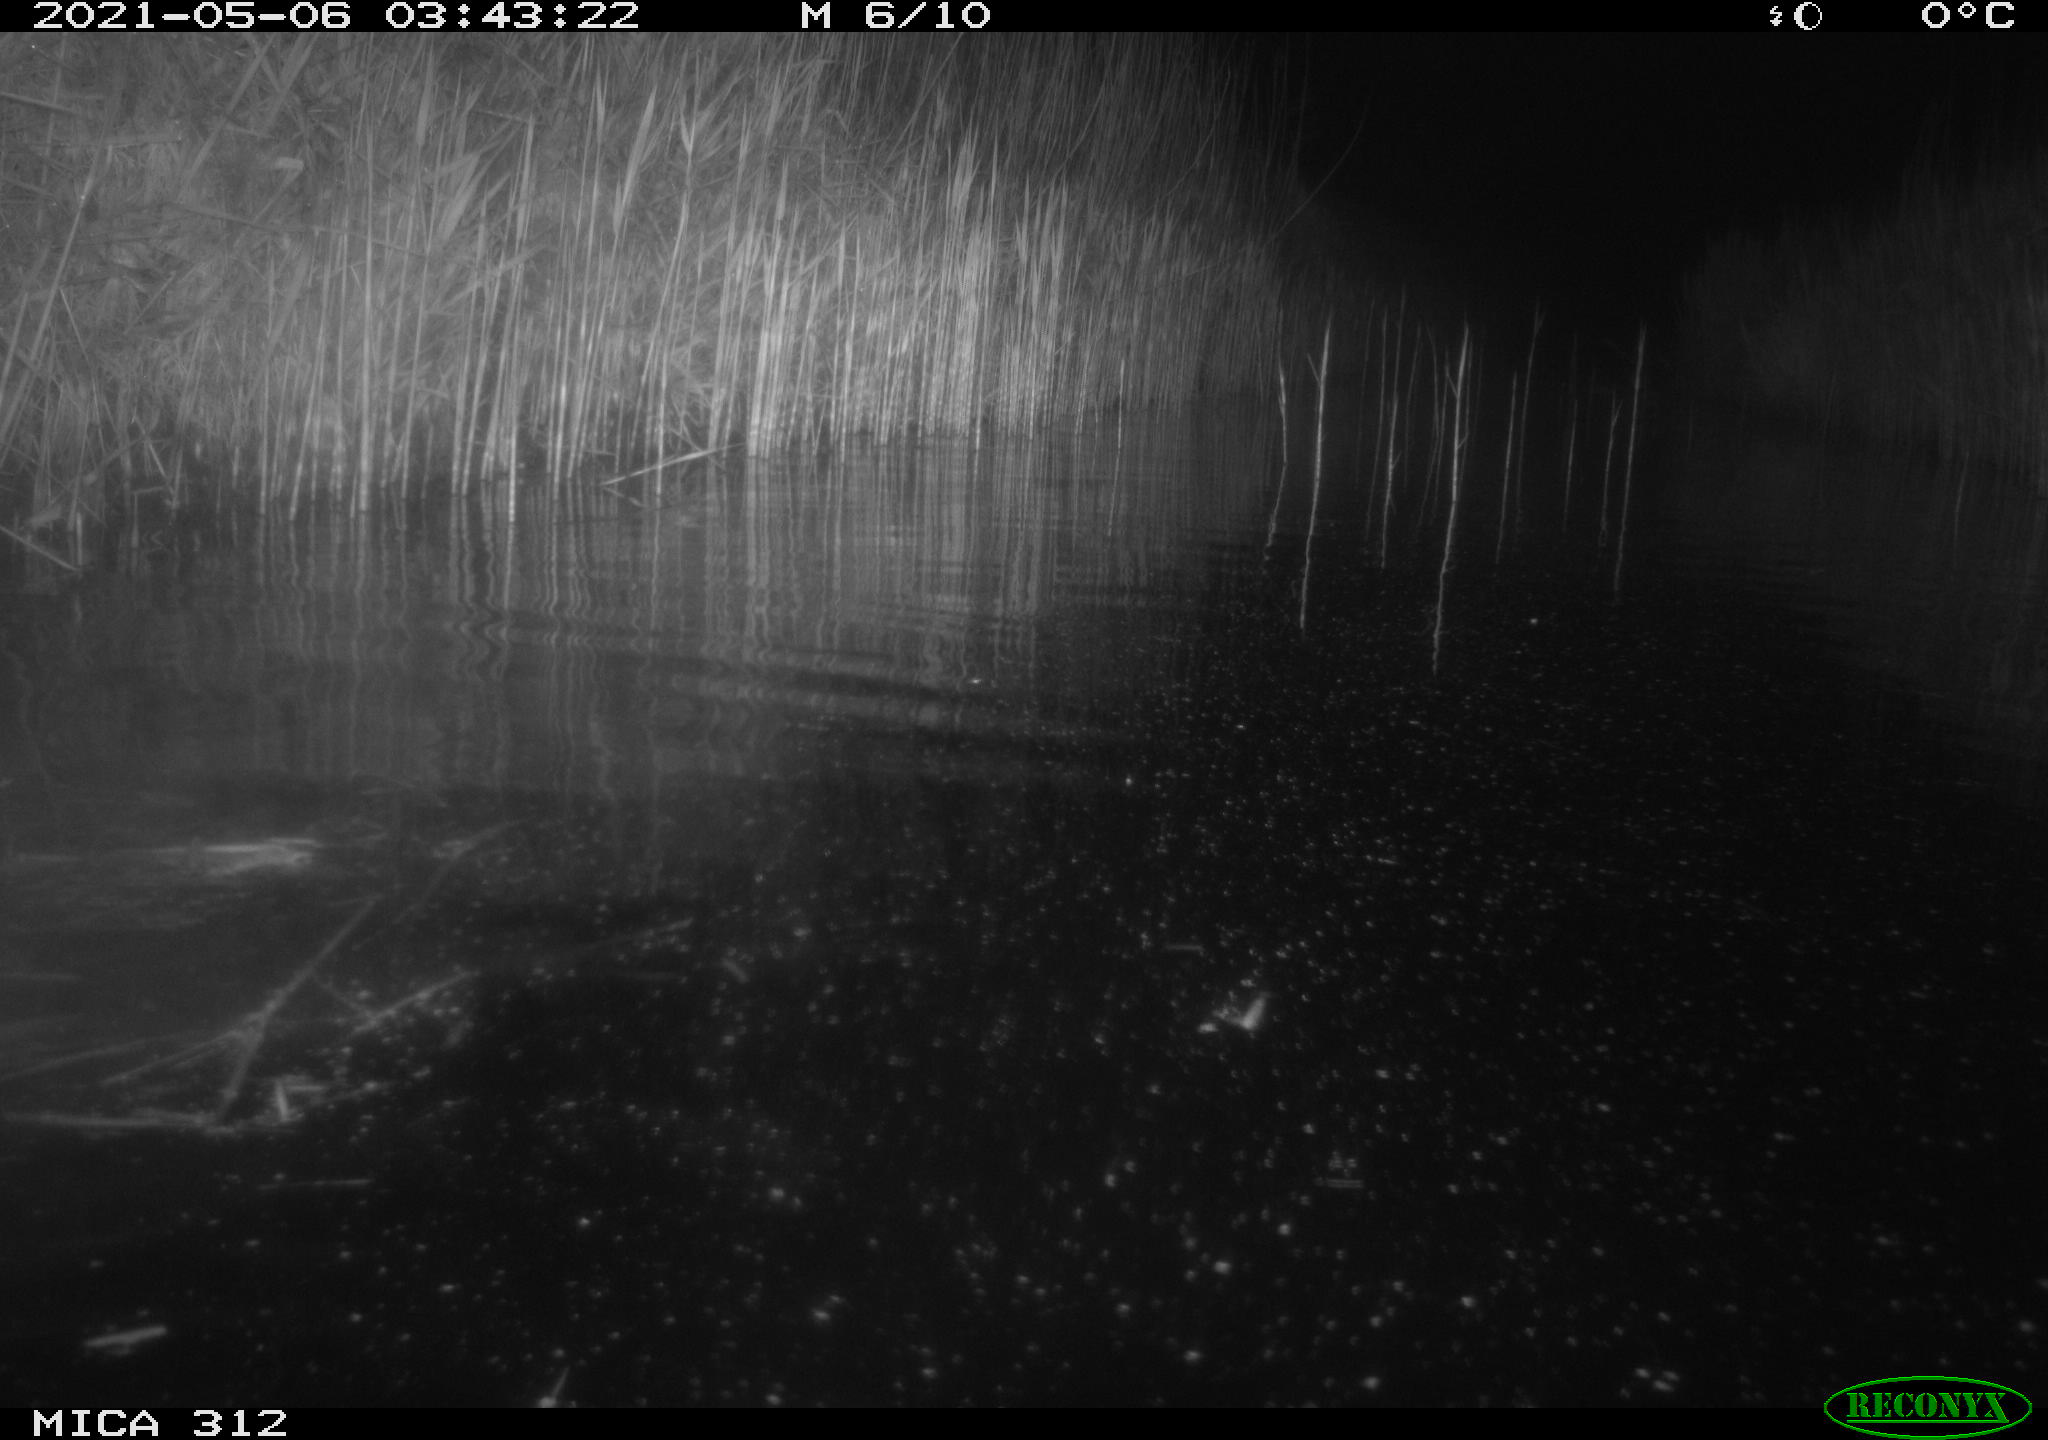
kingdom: Animalia
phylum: Chordata
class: Mammalia
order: Rodentia
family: Cricetidae
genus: Ondatra
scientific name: Ondatra zibethicus
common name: Muskrat
